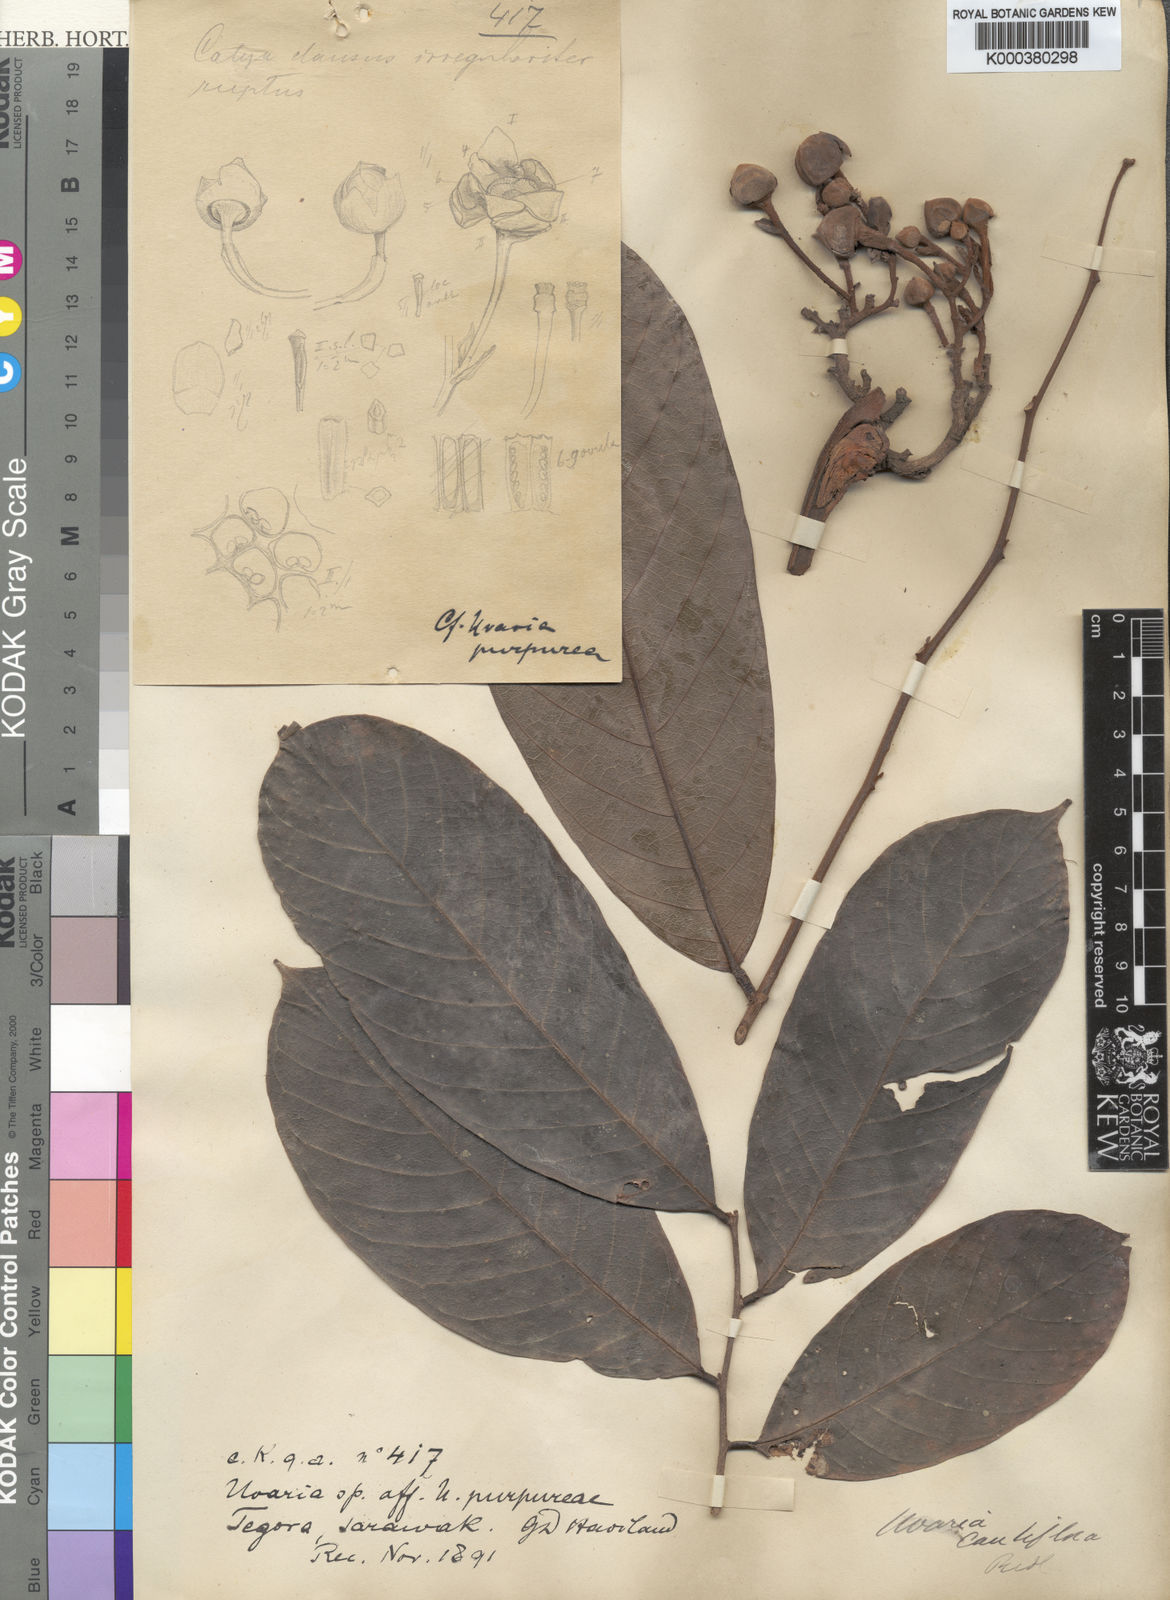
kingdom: Plantae
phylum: Tracheophyta
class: Magnoliopsida
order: Magnoliales
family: Annonaceae
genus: Uvaria
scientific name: Uvaria monticola
